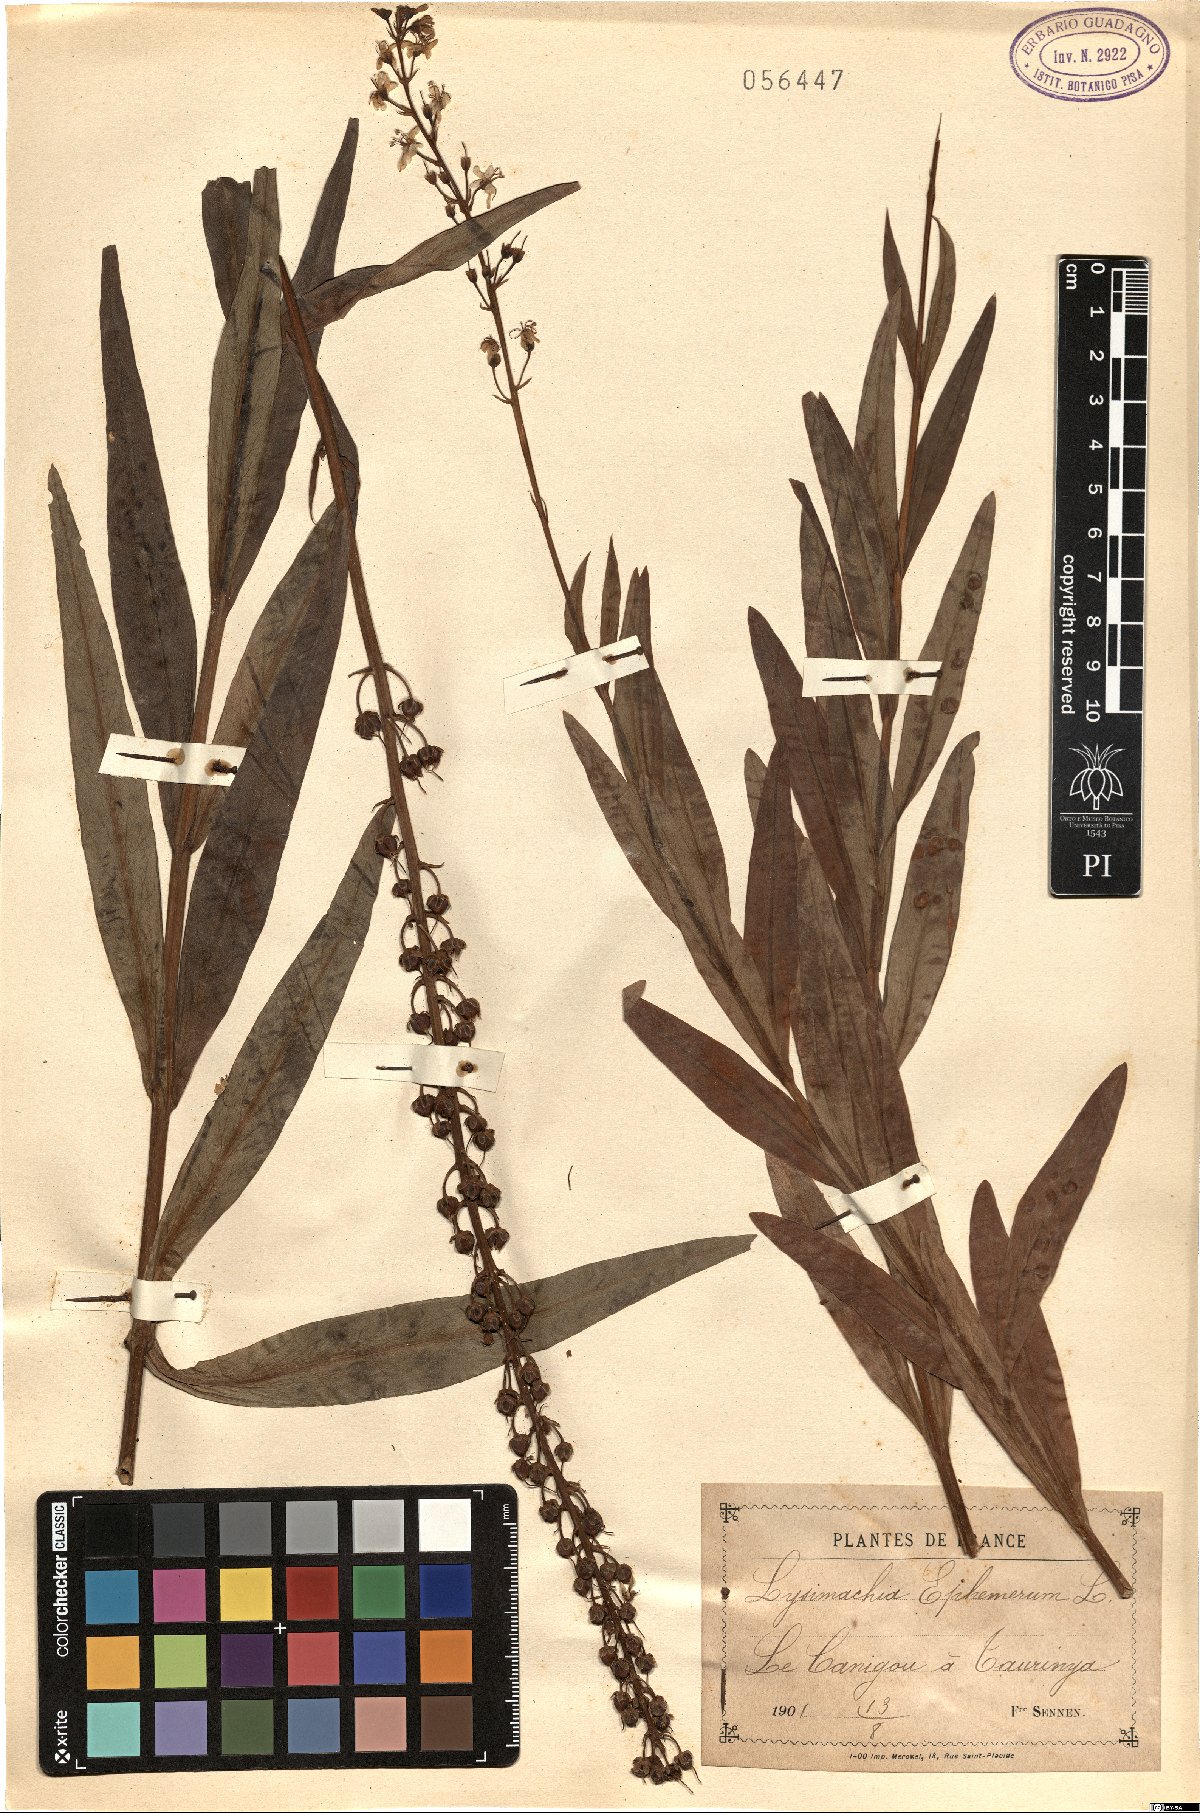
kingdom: Plantae
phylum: Tracheophyta
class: Magnoliopsida
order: Ericales
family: Primulaceae
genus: Lysimachia
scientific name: Lysimachia ephemerum
